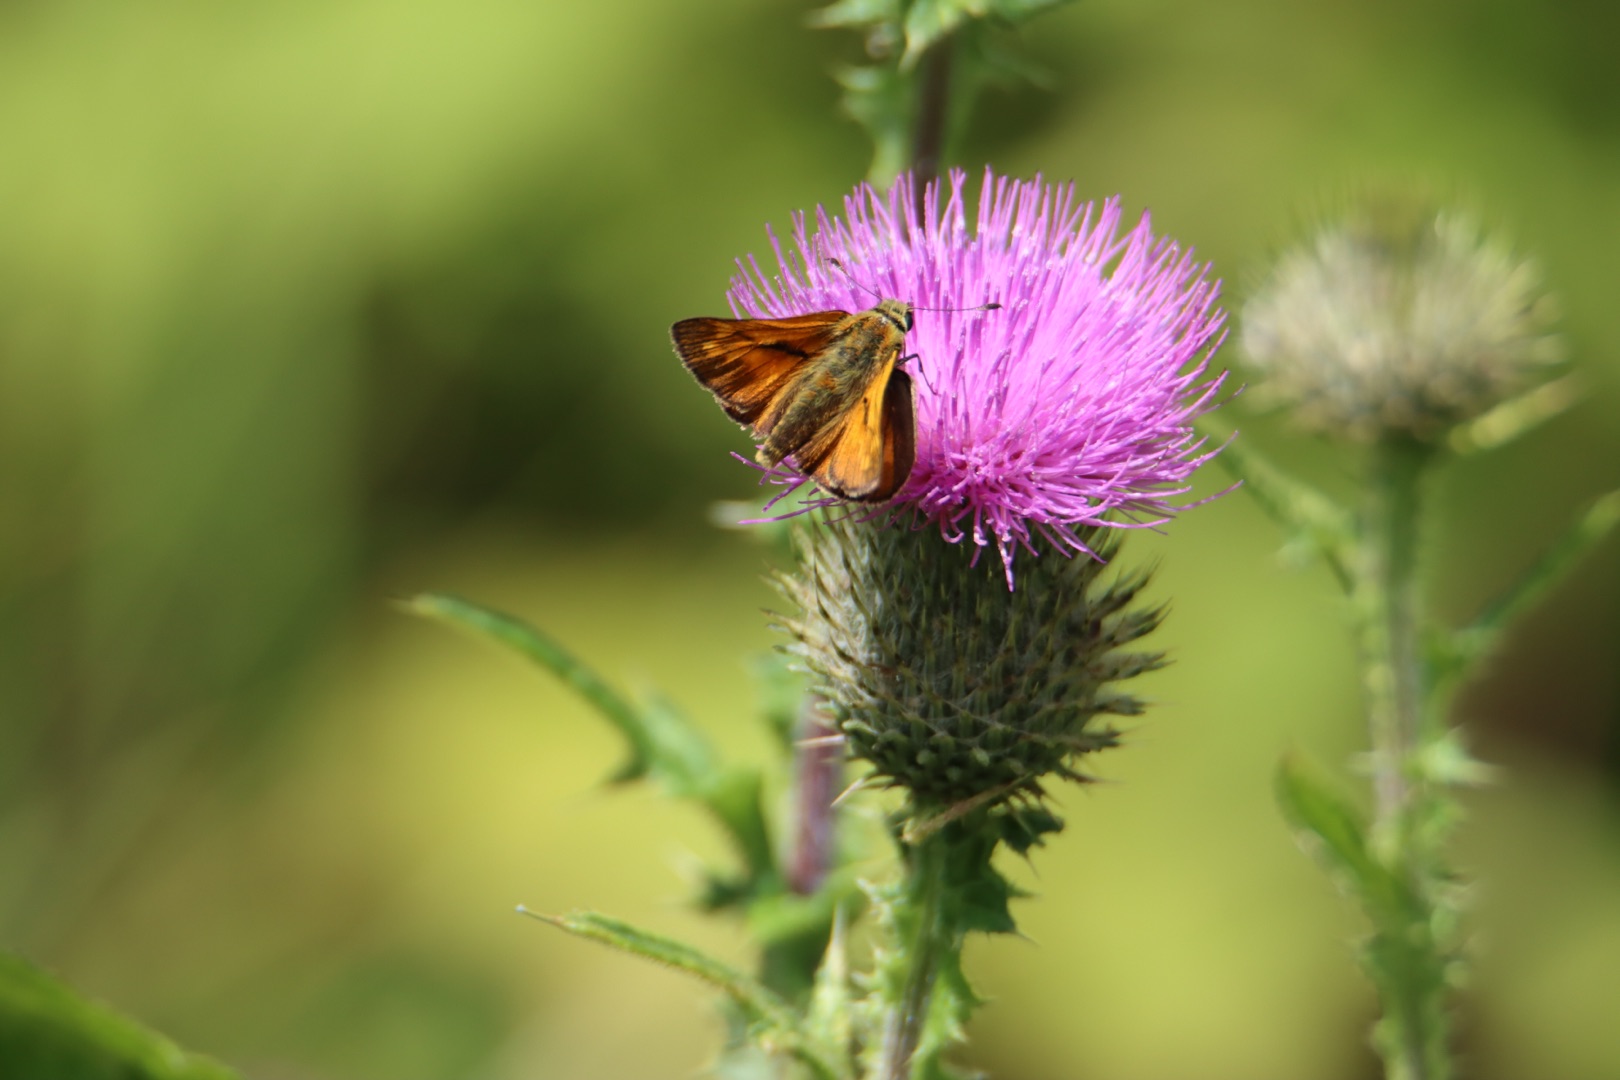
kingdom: Animalia
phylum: Arthropoda
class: Insecta
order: Lepidoptera
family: Hesperiidae
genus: Ochlodes
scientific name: Ochlodes venata
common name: Stor bredpande
